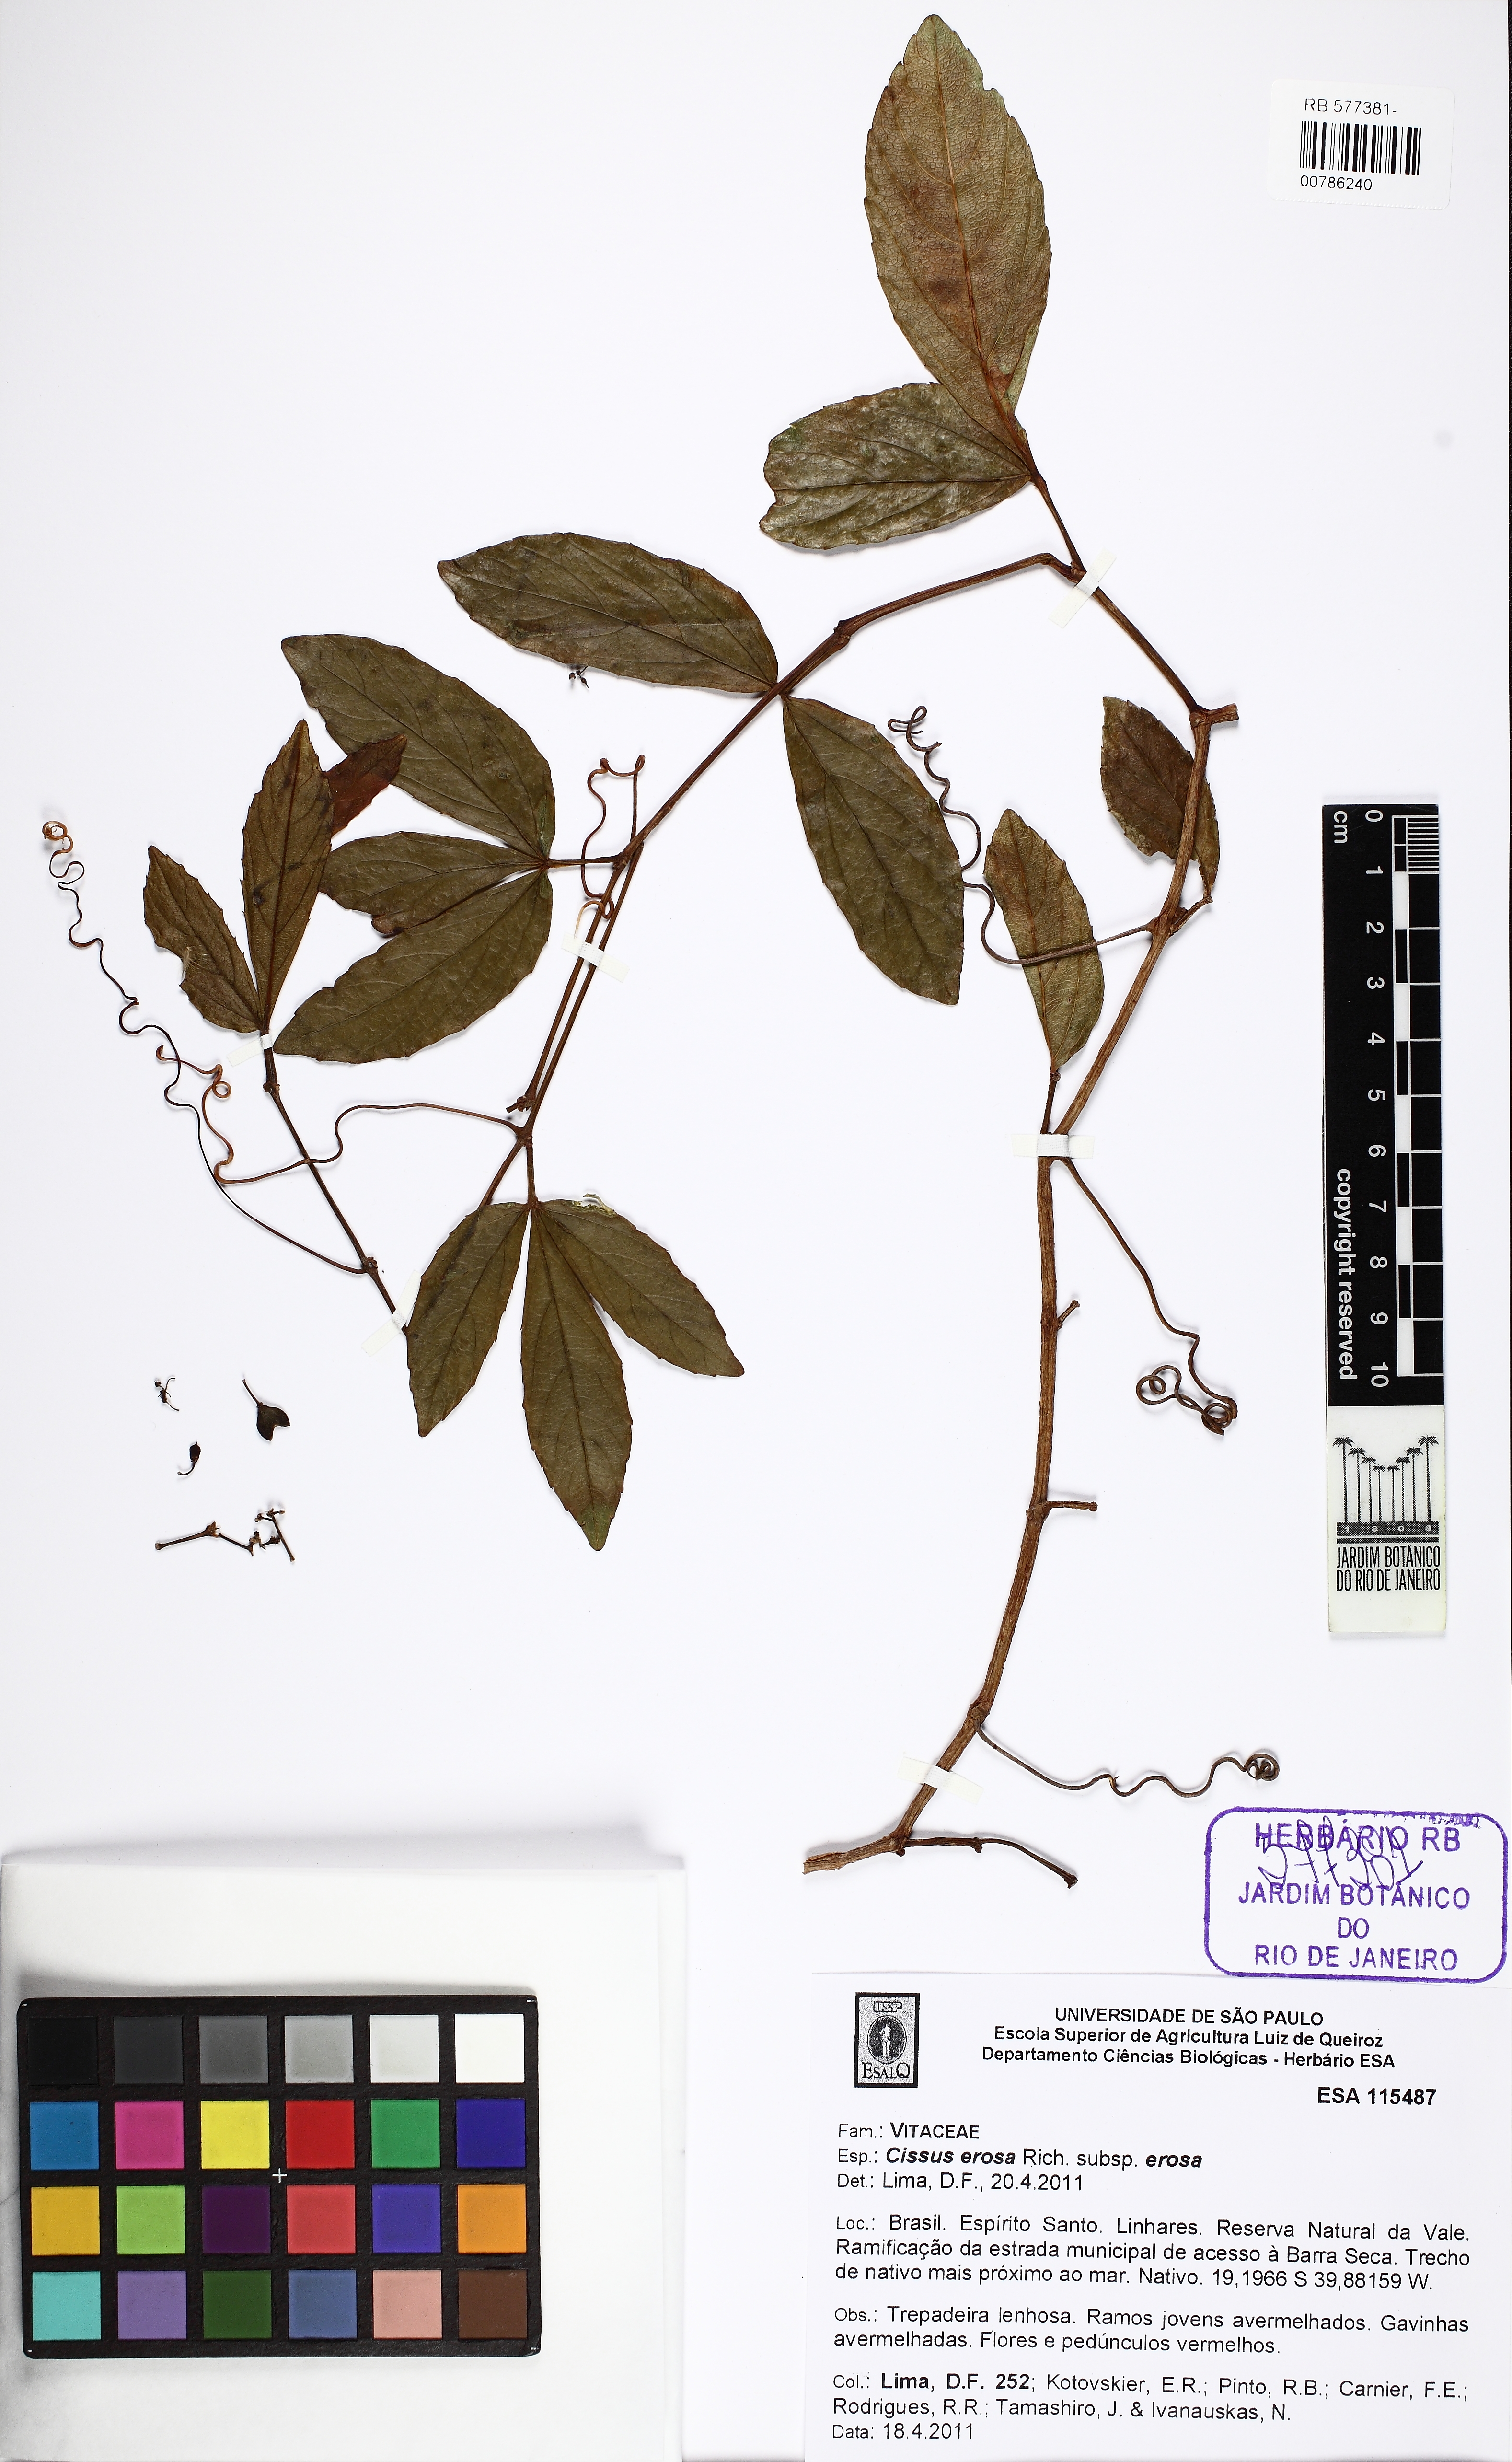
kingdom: Plantae
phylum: Tracheophyta
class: Magnoliopsida
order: Vitales
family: Vitaceae
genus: Cissus
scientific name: Cissus erosa
